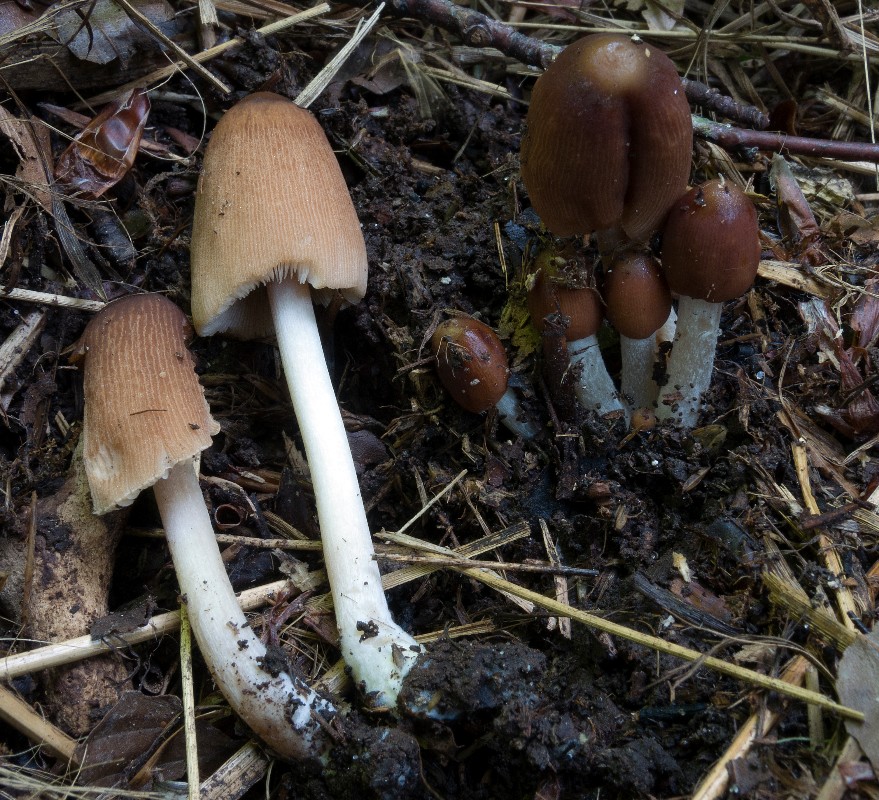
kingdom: Fungi
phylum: Basidiomycota
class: Agaricomycetes
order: Agaricales
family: Psathyrellaceae
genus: Parasola
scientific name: Parasola auricoma
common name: hansens hjulhat
